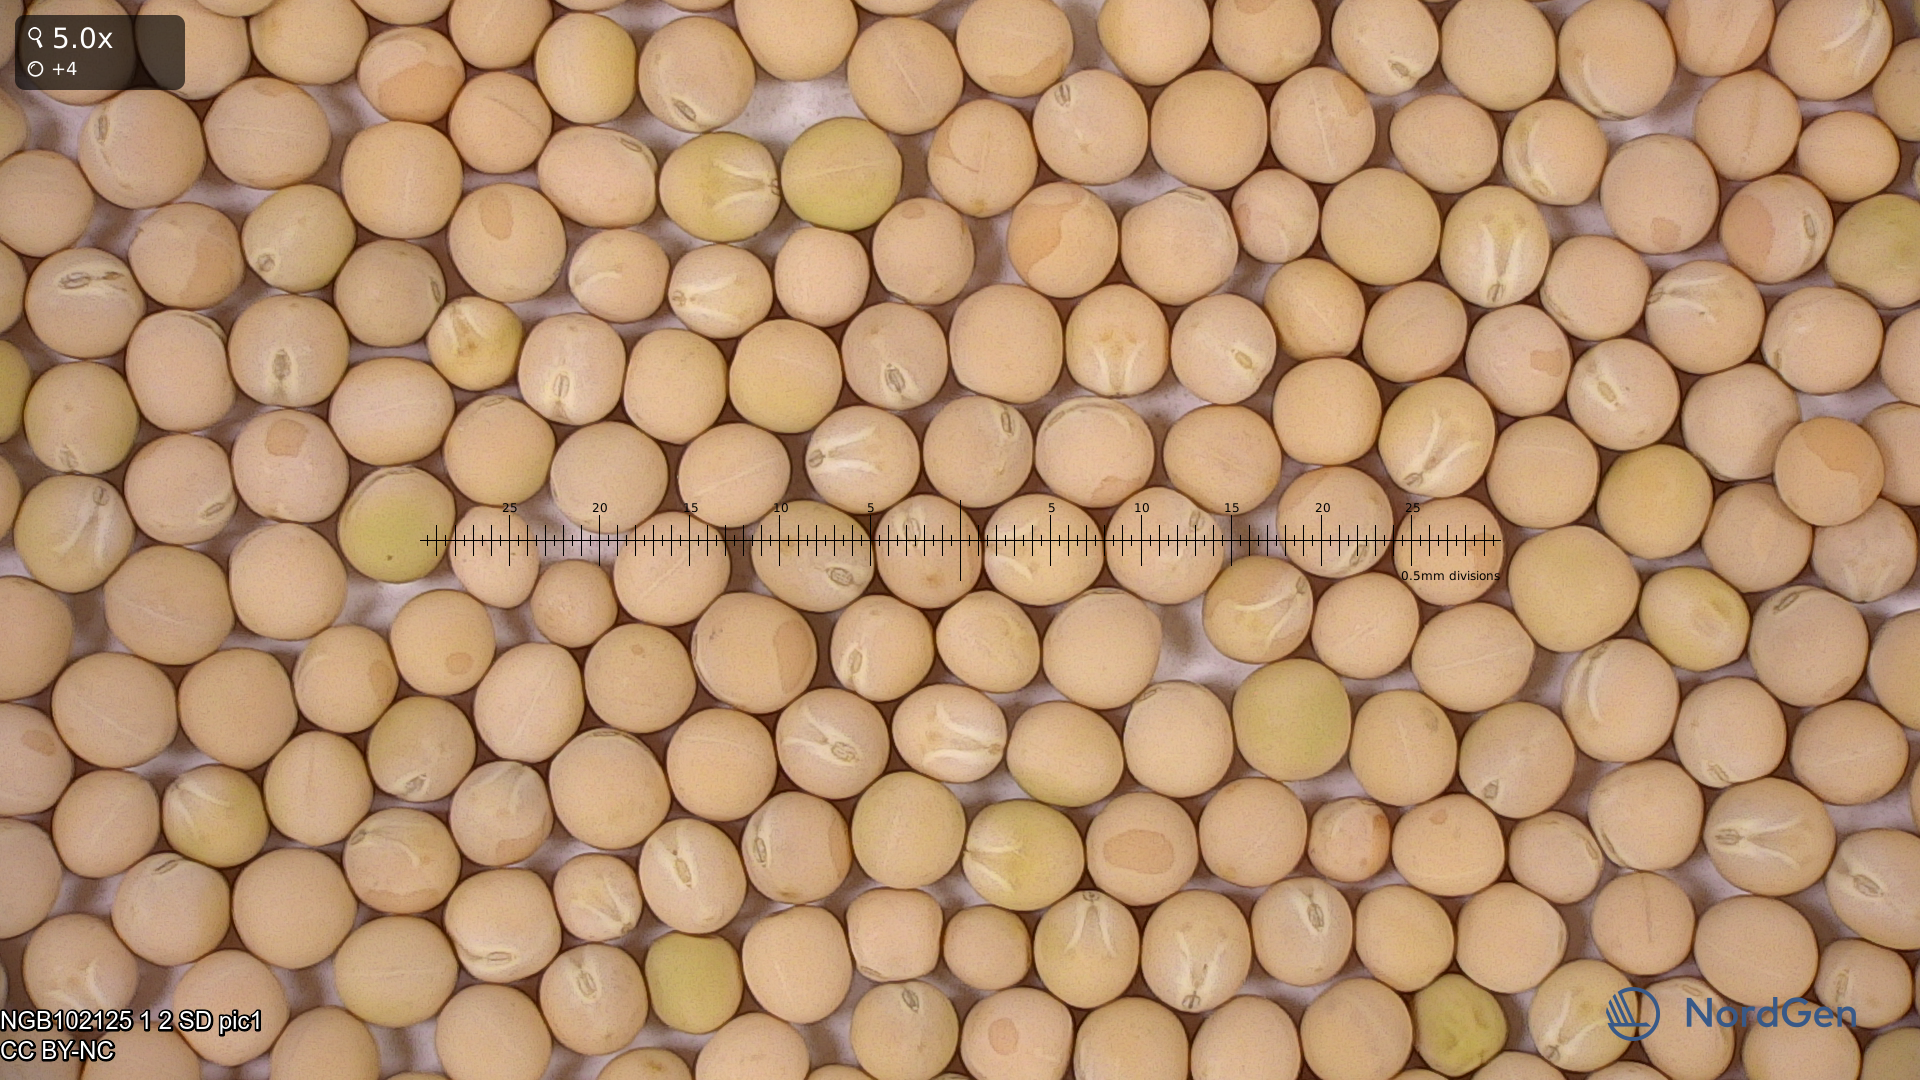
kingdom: Plantae
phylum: Tracheophyta
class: Magnoliopsida
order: Fabales
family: Fabaceae
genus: Lathyrus
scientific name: Lathyrus oleraceus
